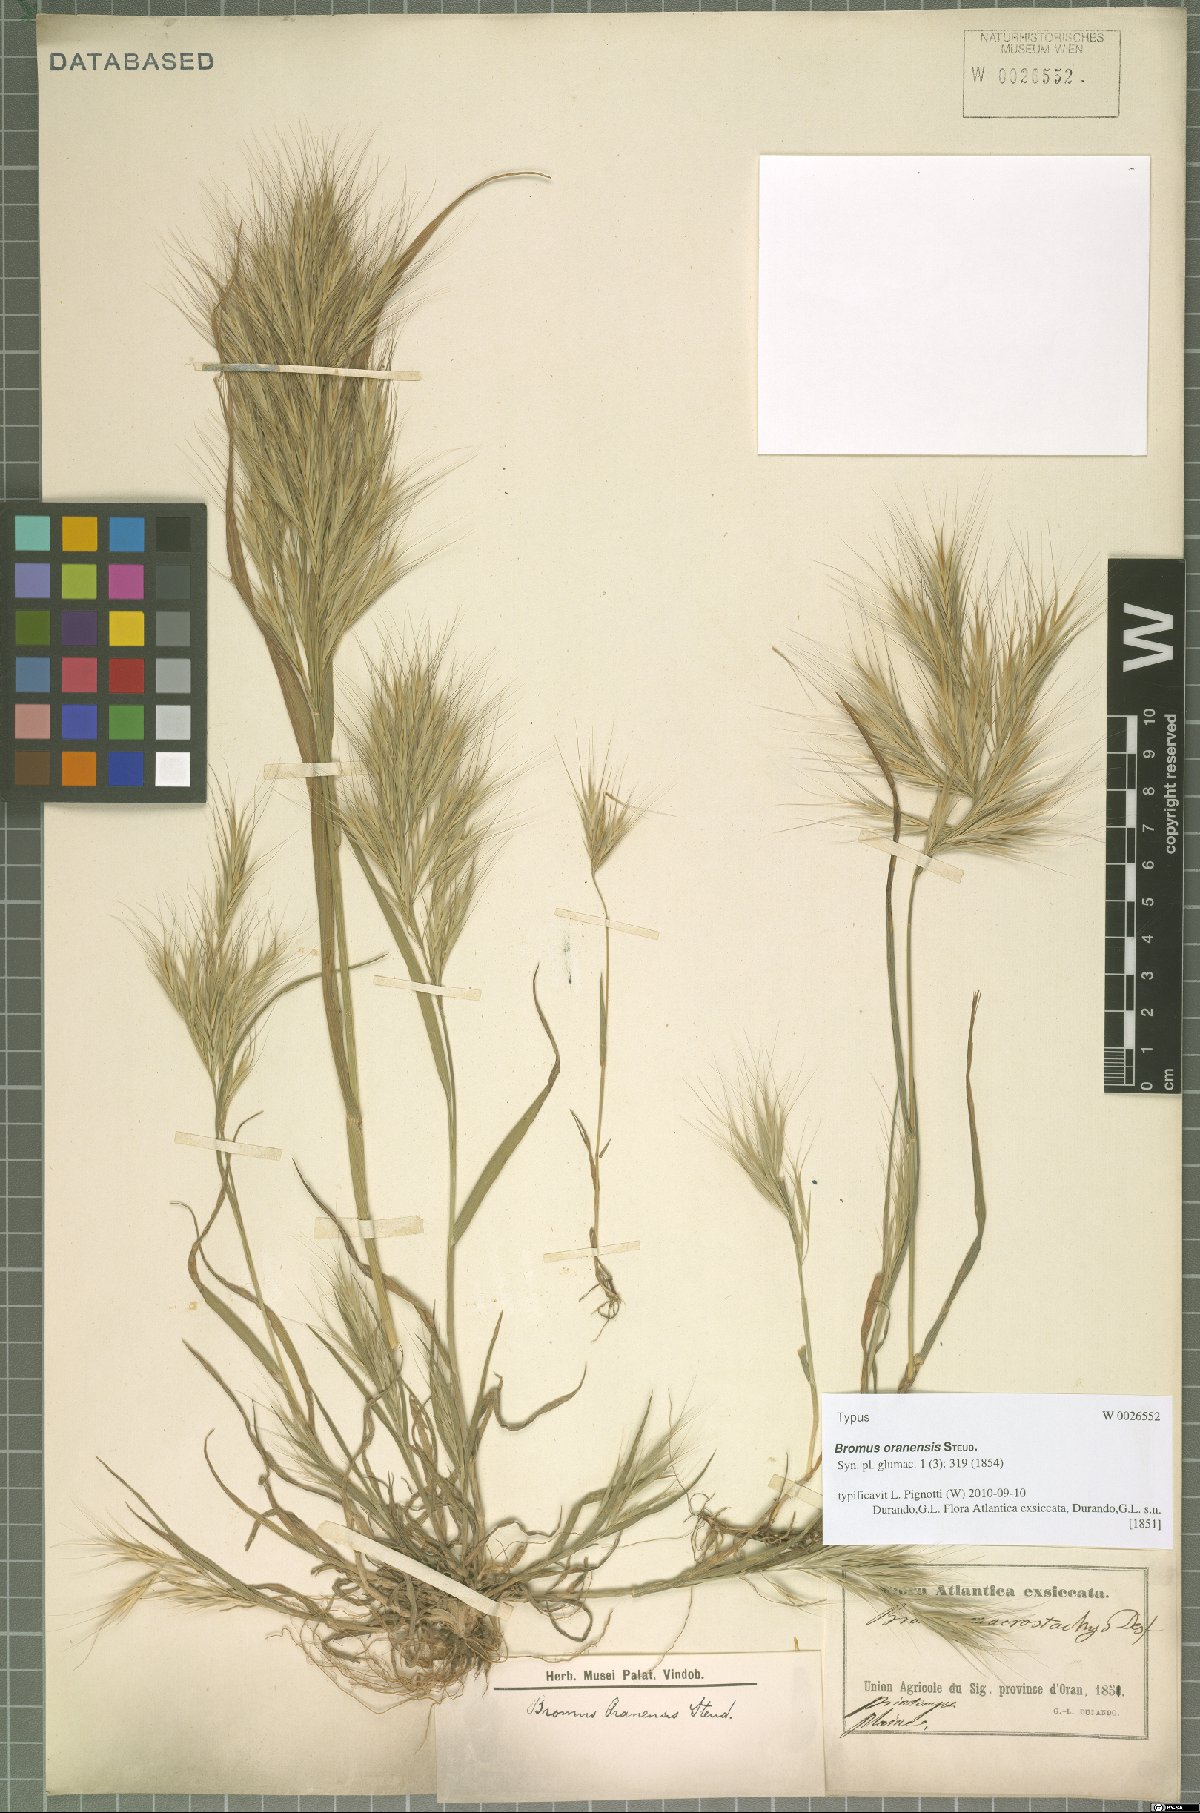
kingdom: Plantae
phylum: Tracheophyta
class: Liliopsida
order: Poales
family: Poaceae
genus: Bromus
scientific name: Bromus madritensis
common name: Compact brome
